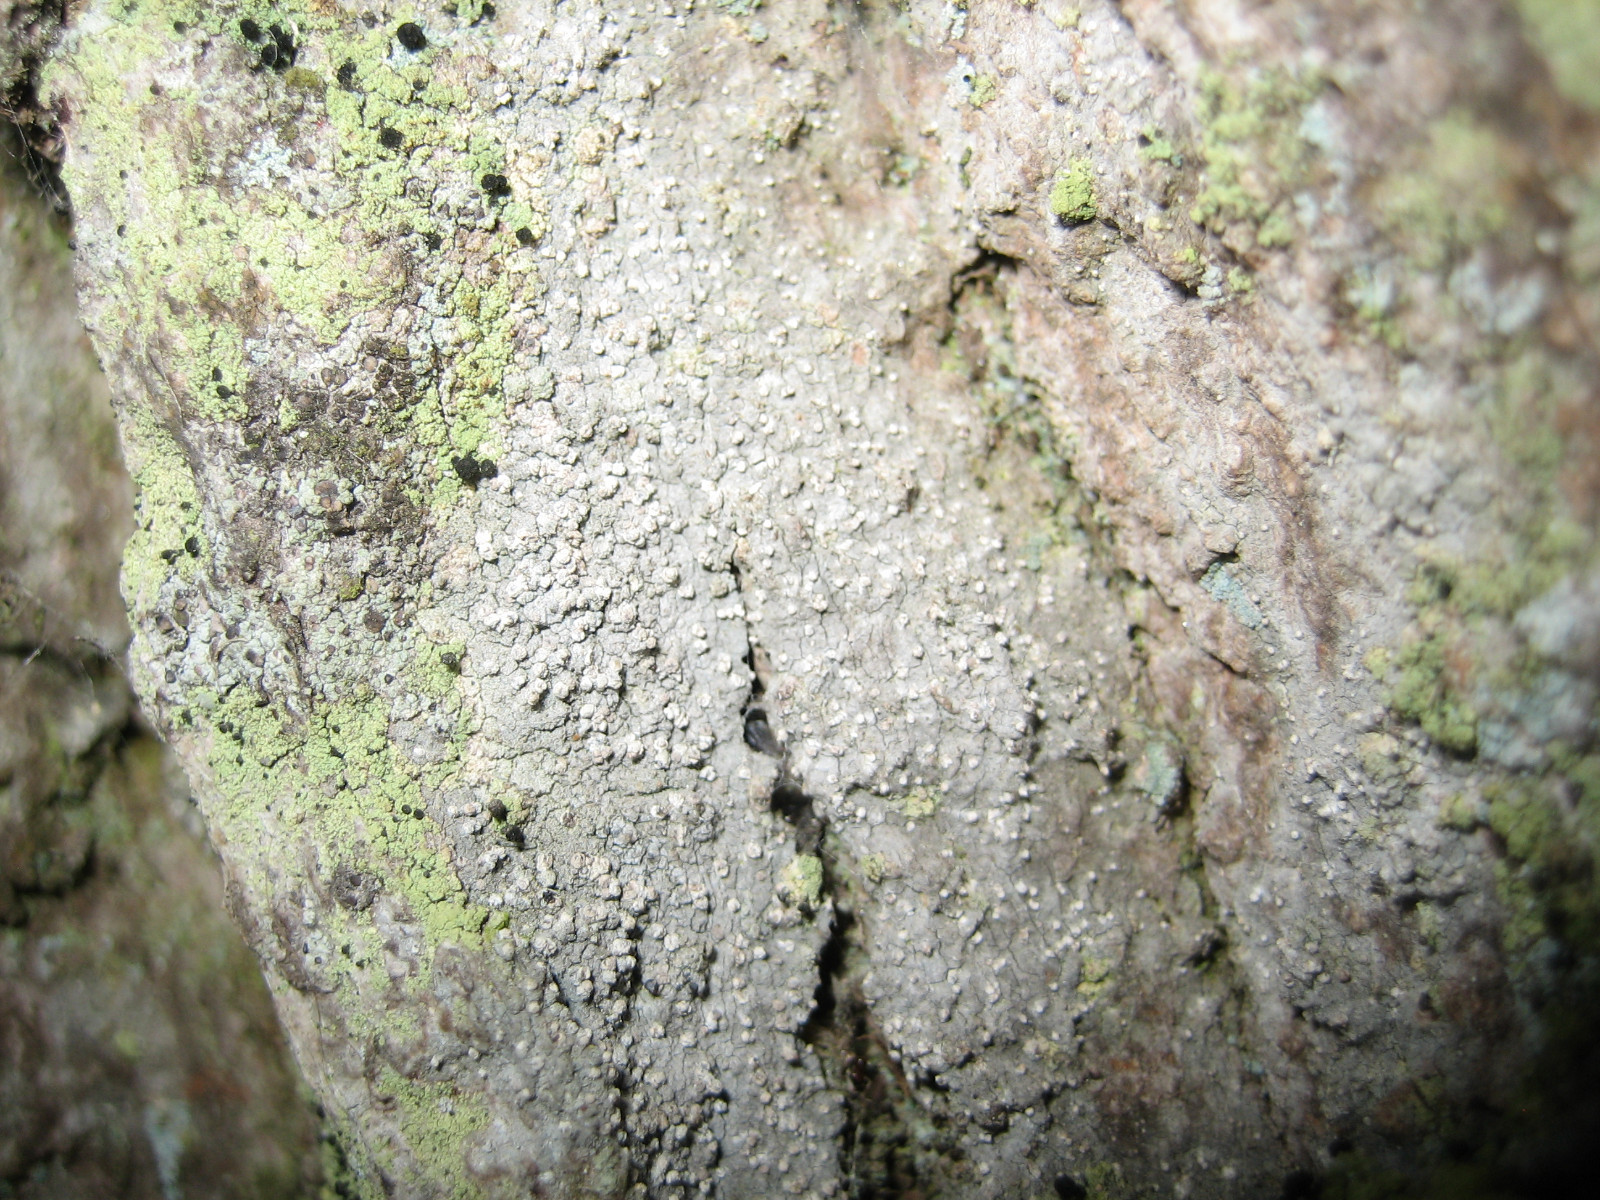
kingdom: Fungi
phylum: Ascomycota
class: Arthoniomycetes
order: Arthoniales
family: Roccellaceae
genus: Lecanactis
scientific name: Lecanactis abietina
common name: grå dugskivelav
